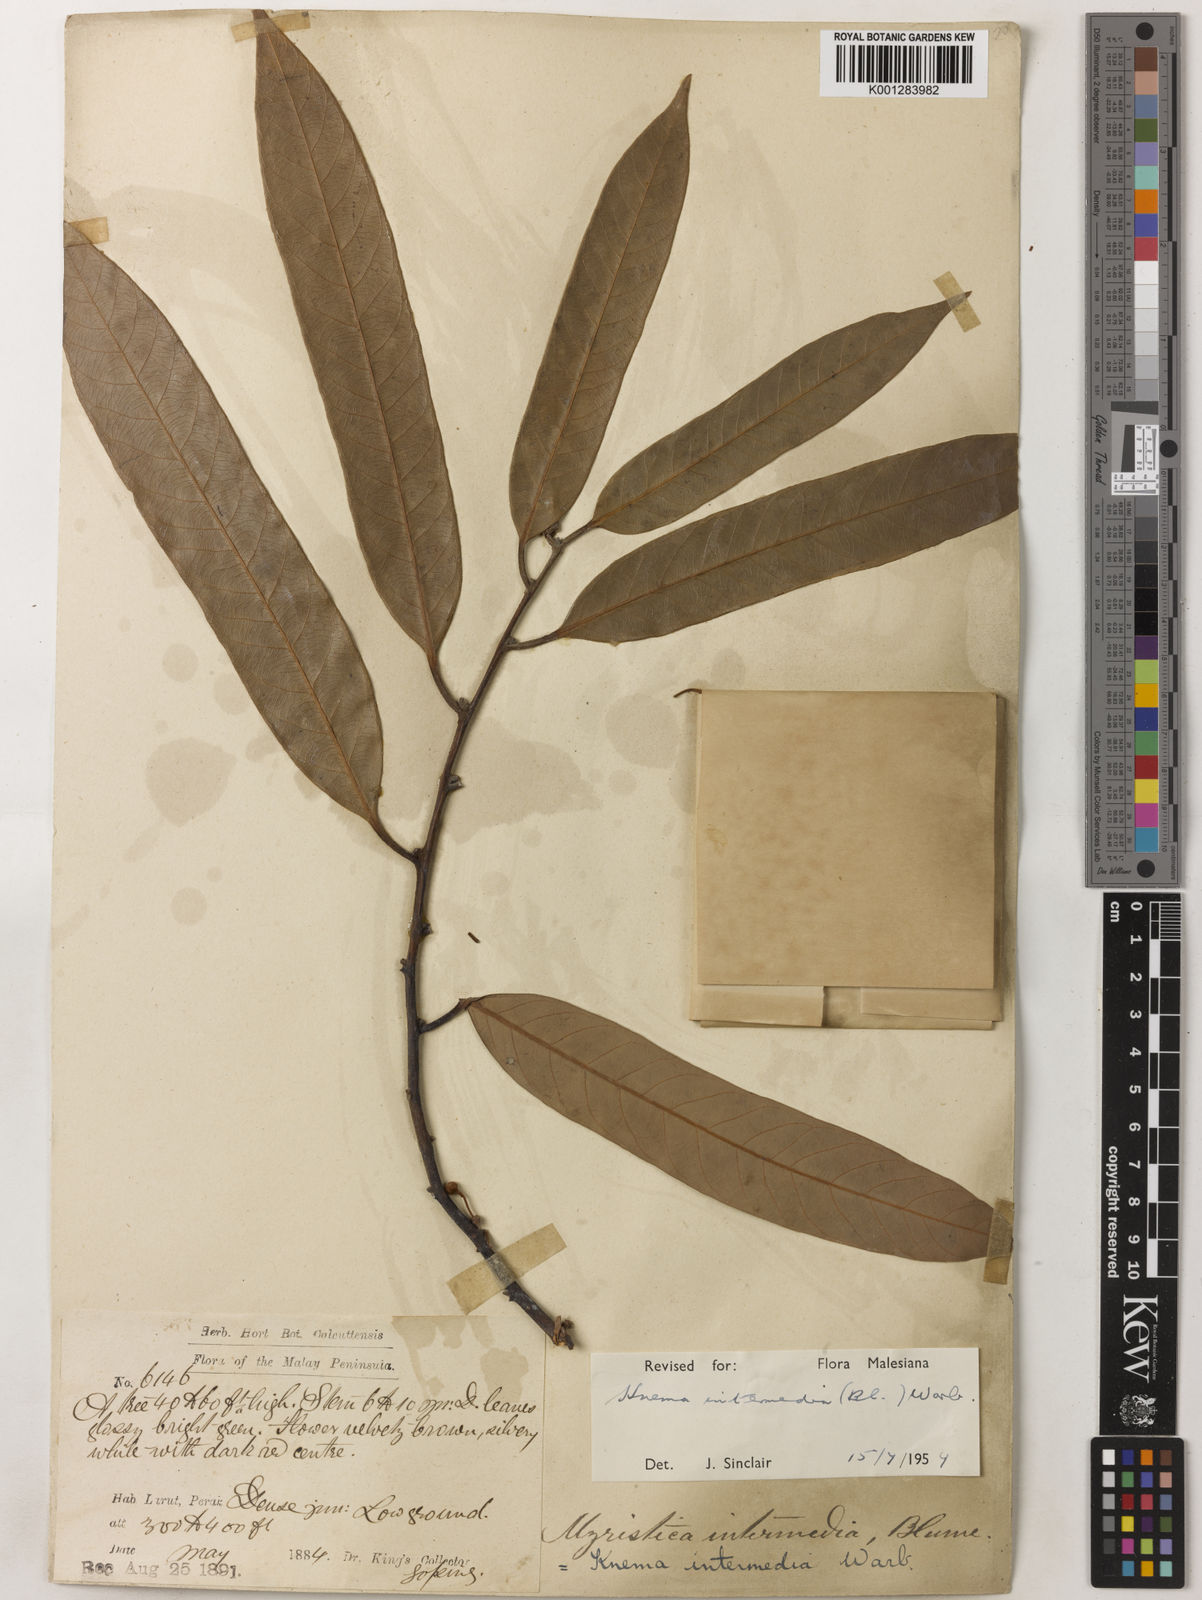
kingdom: Plantae
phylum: Tracheophyta
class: Magnoliopsida
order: Magnoliales
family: Myristicaceae
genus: Knema
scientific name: Knema intermedia
